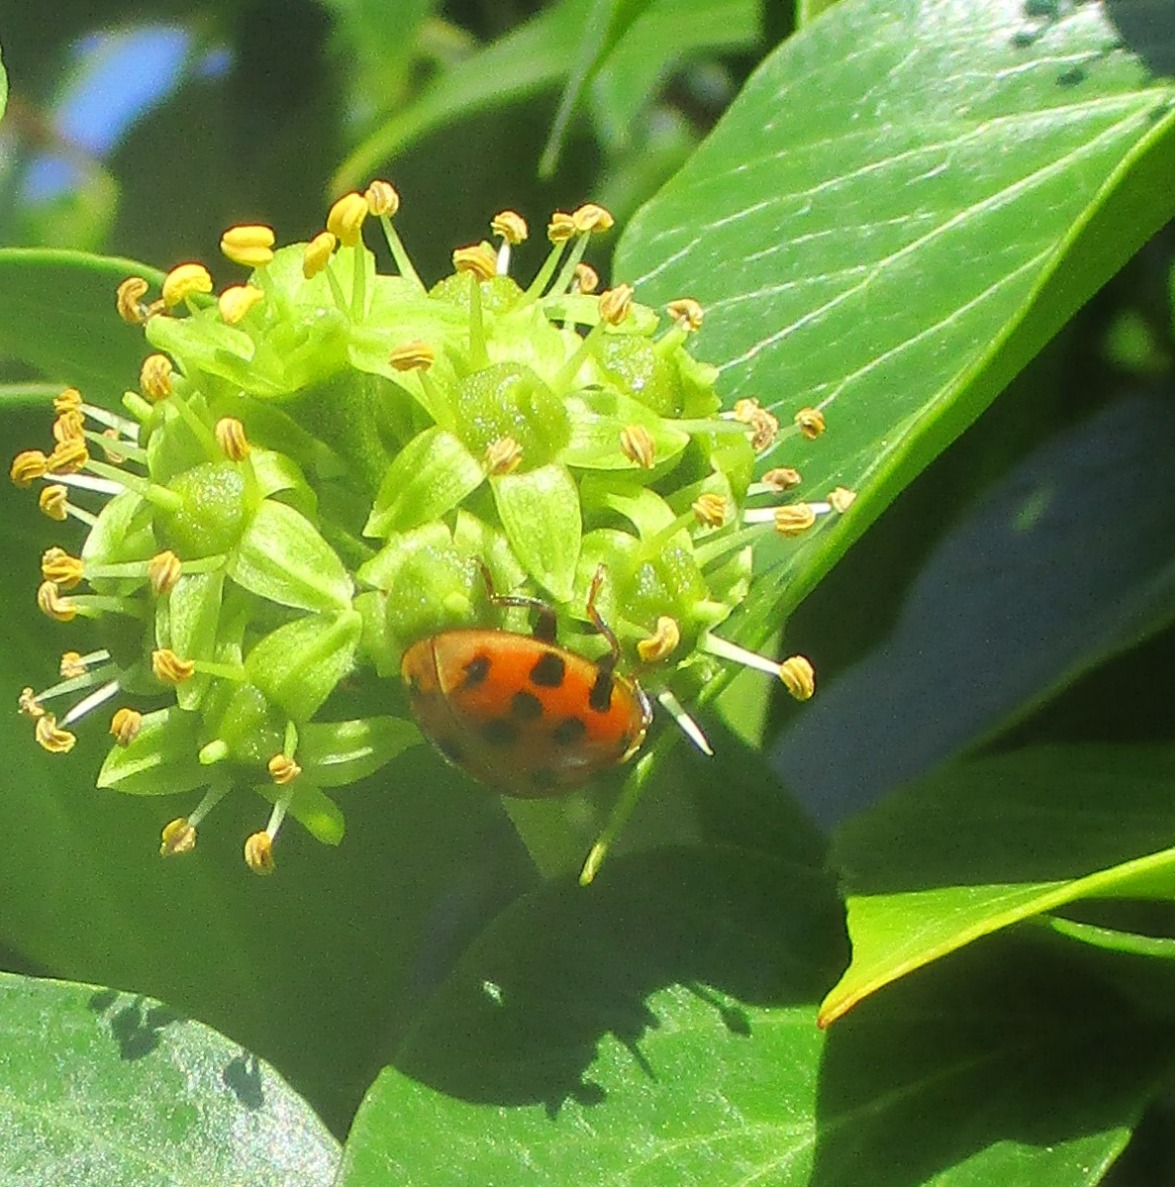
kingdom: Animalia
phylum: Arthropoda
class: Insecta
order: Coleoptera
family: Coccinellidae
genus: Harmonia
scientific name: Harmonia axyridis
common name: Harlekinmariehøne
